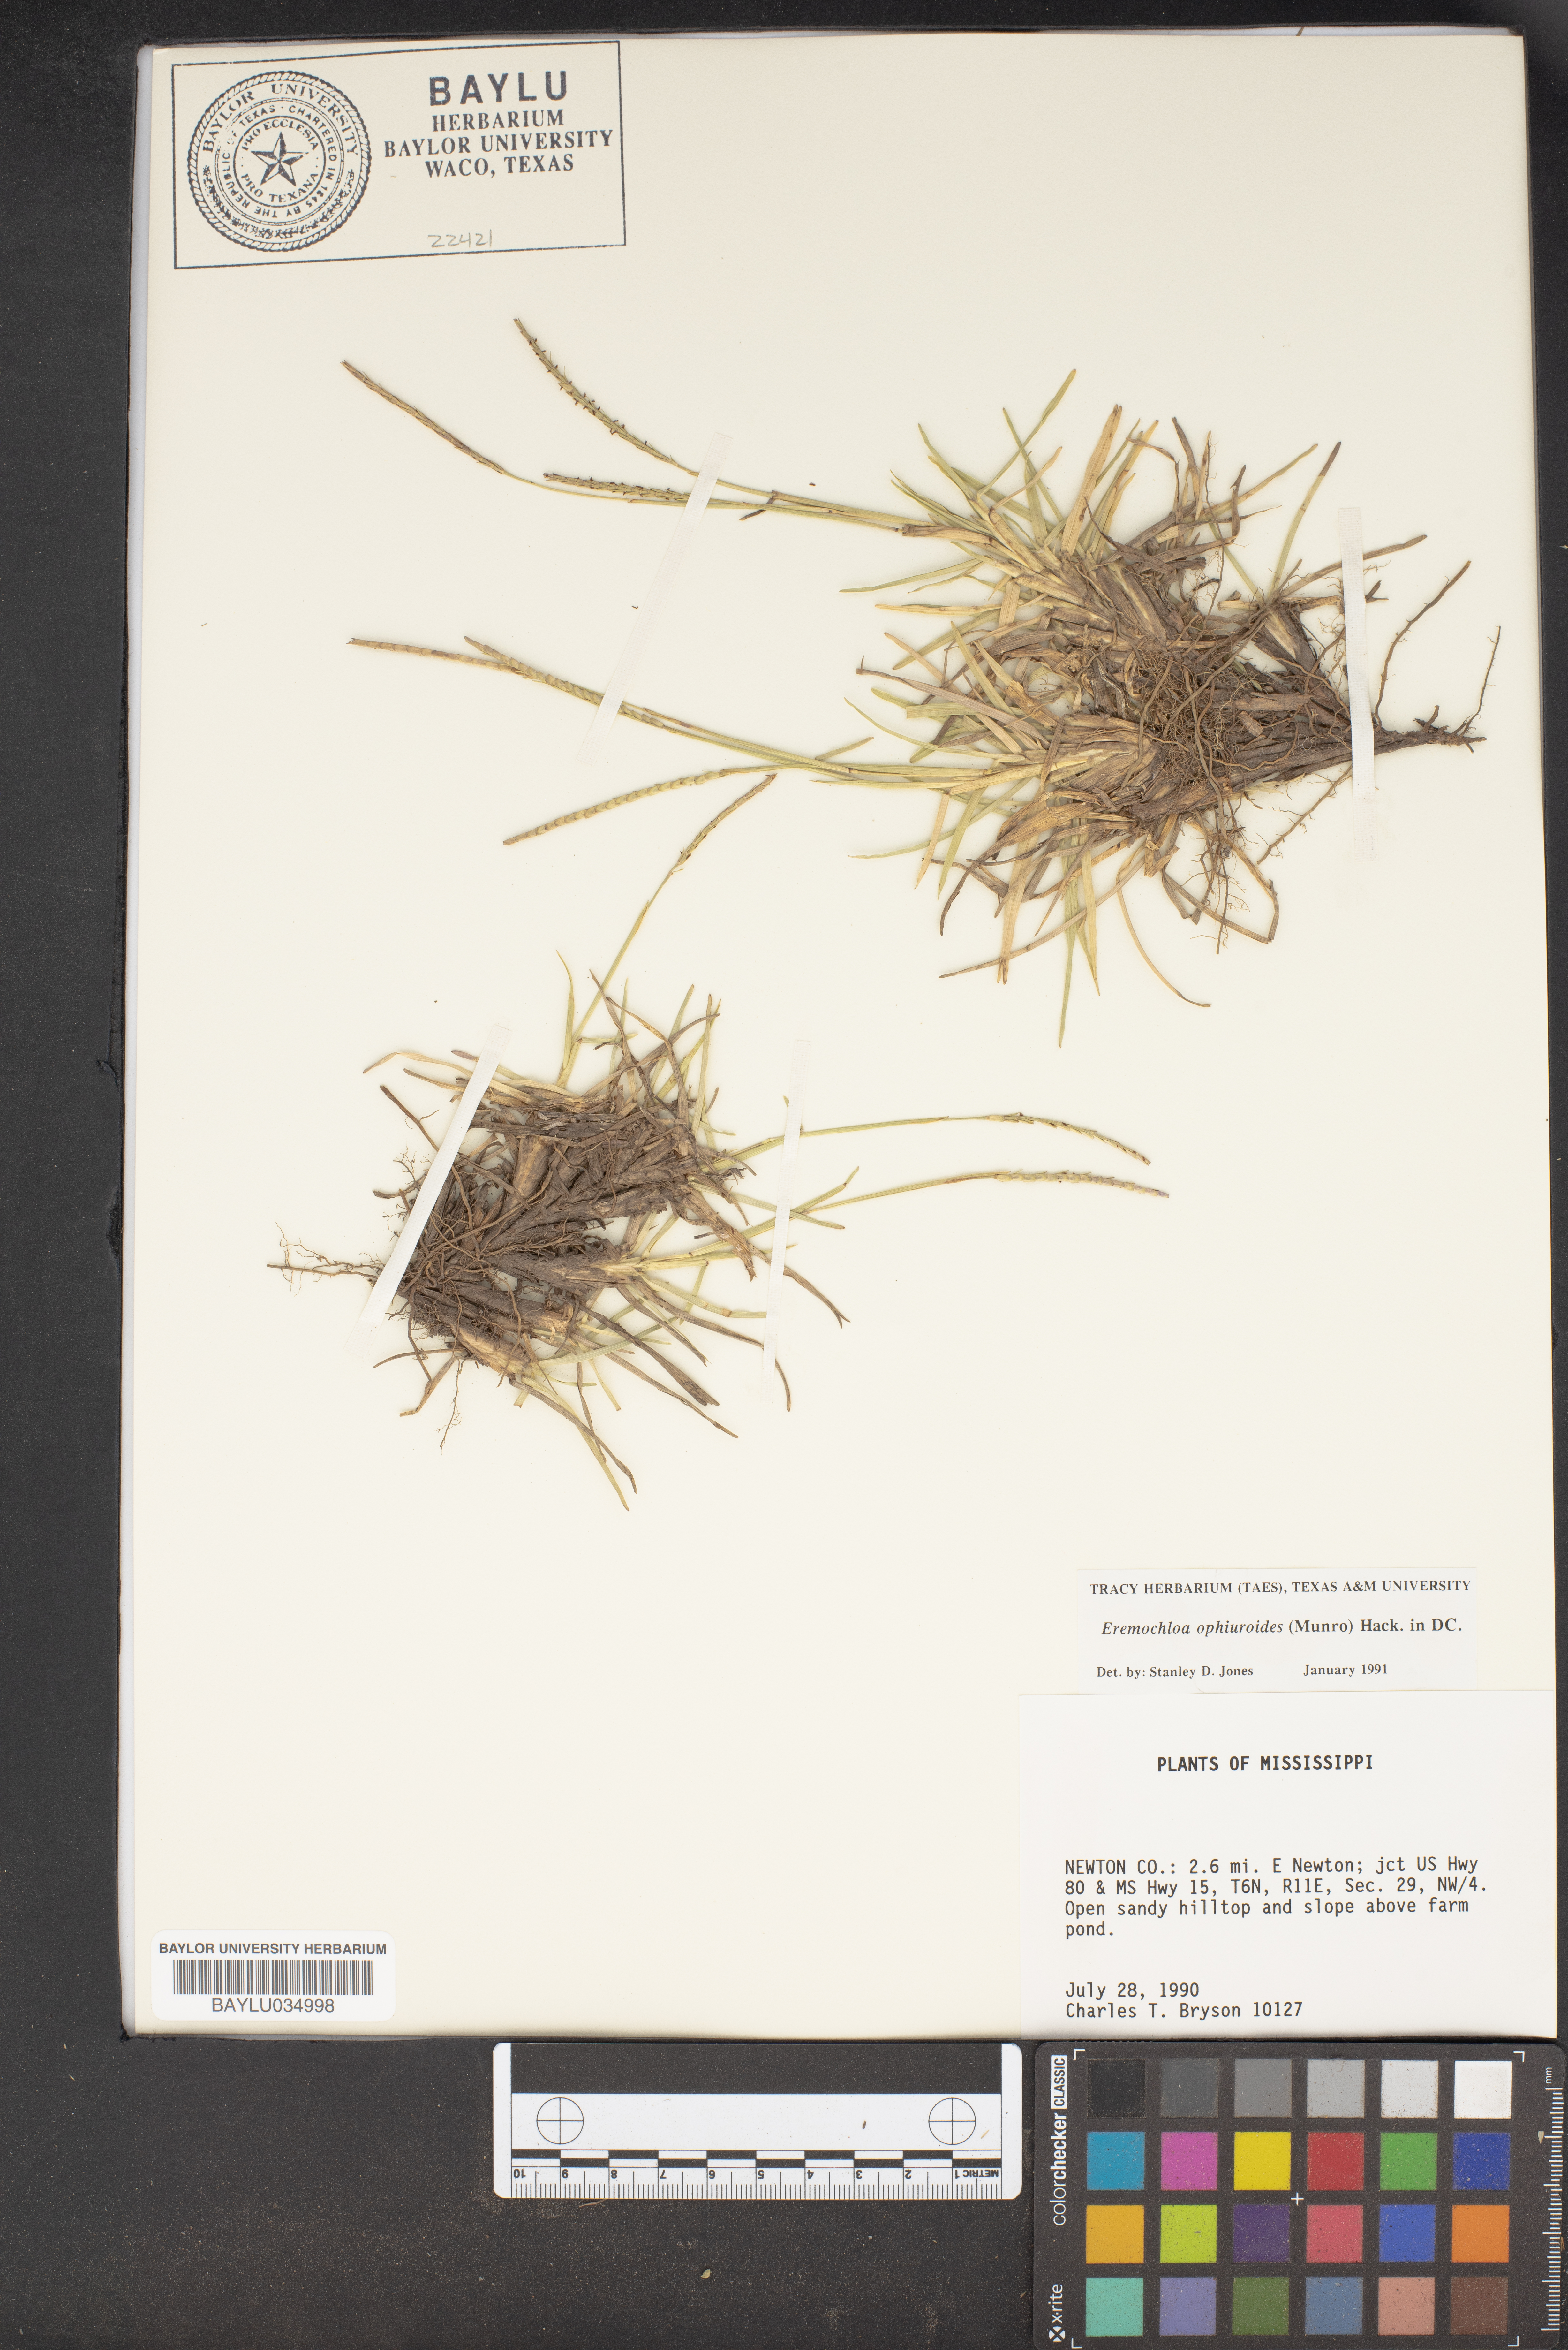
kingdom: Plantae
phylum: Tracheophyta
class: Liliopsida
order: Poales
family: Poaceae
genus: Eremochloa
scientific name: Eremochloa ophiuroides
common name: Centipede grass
